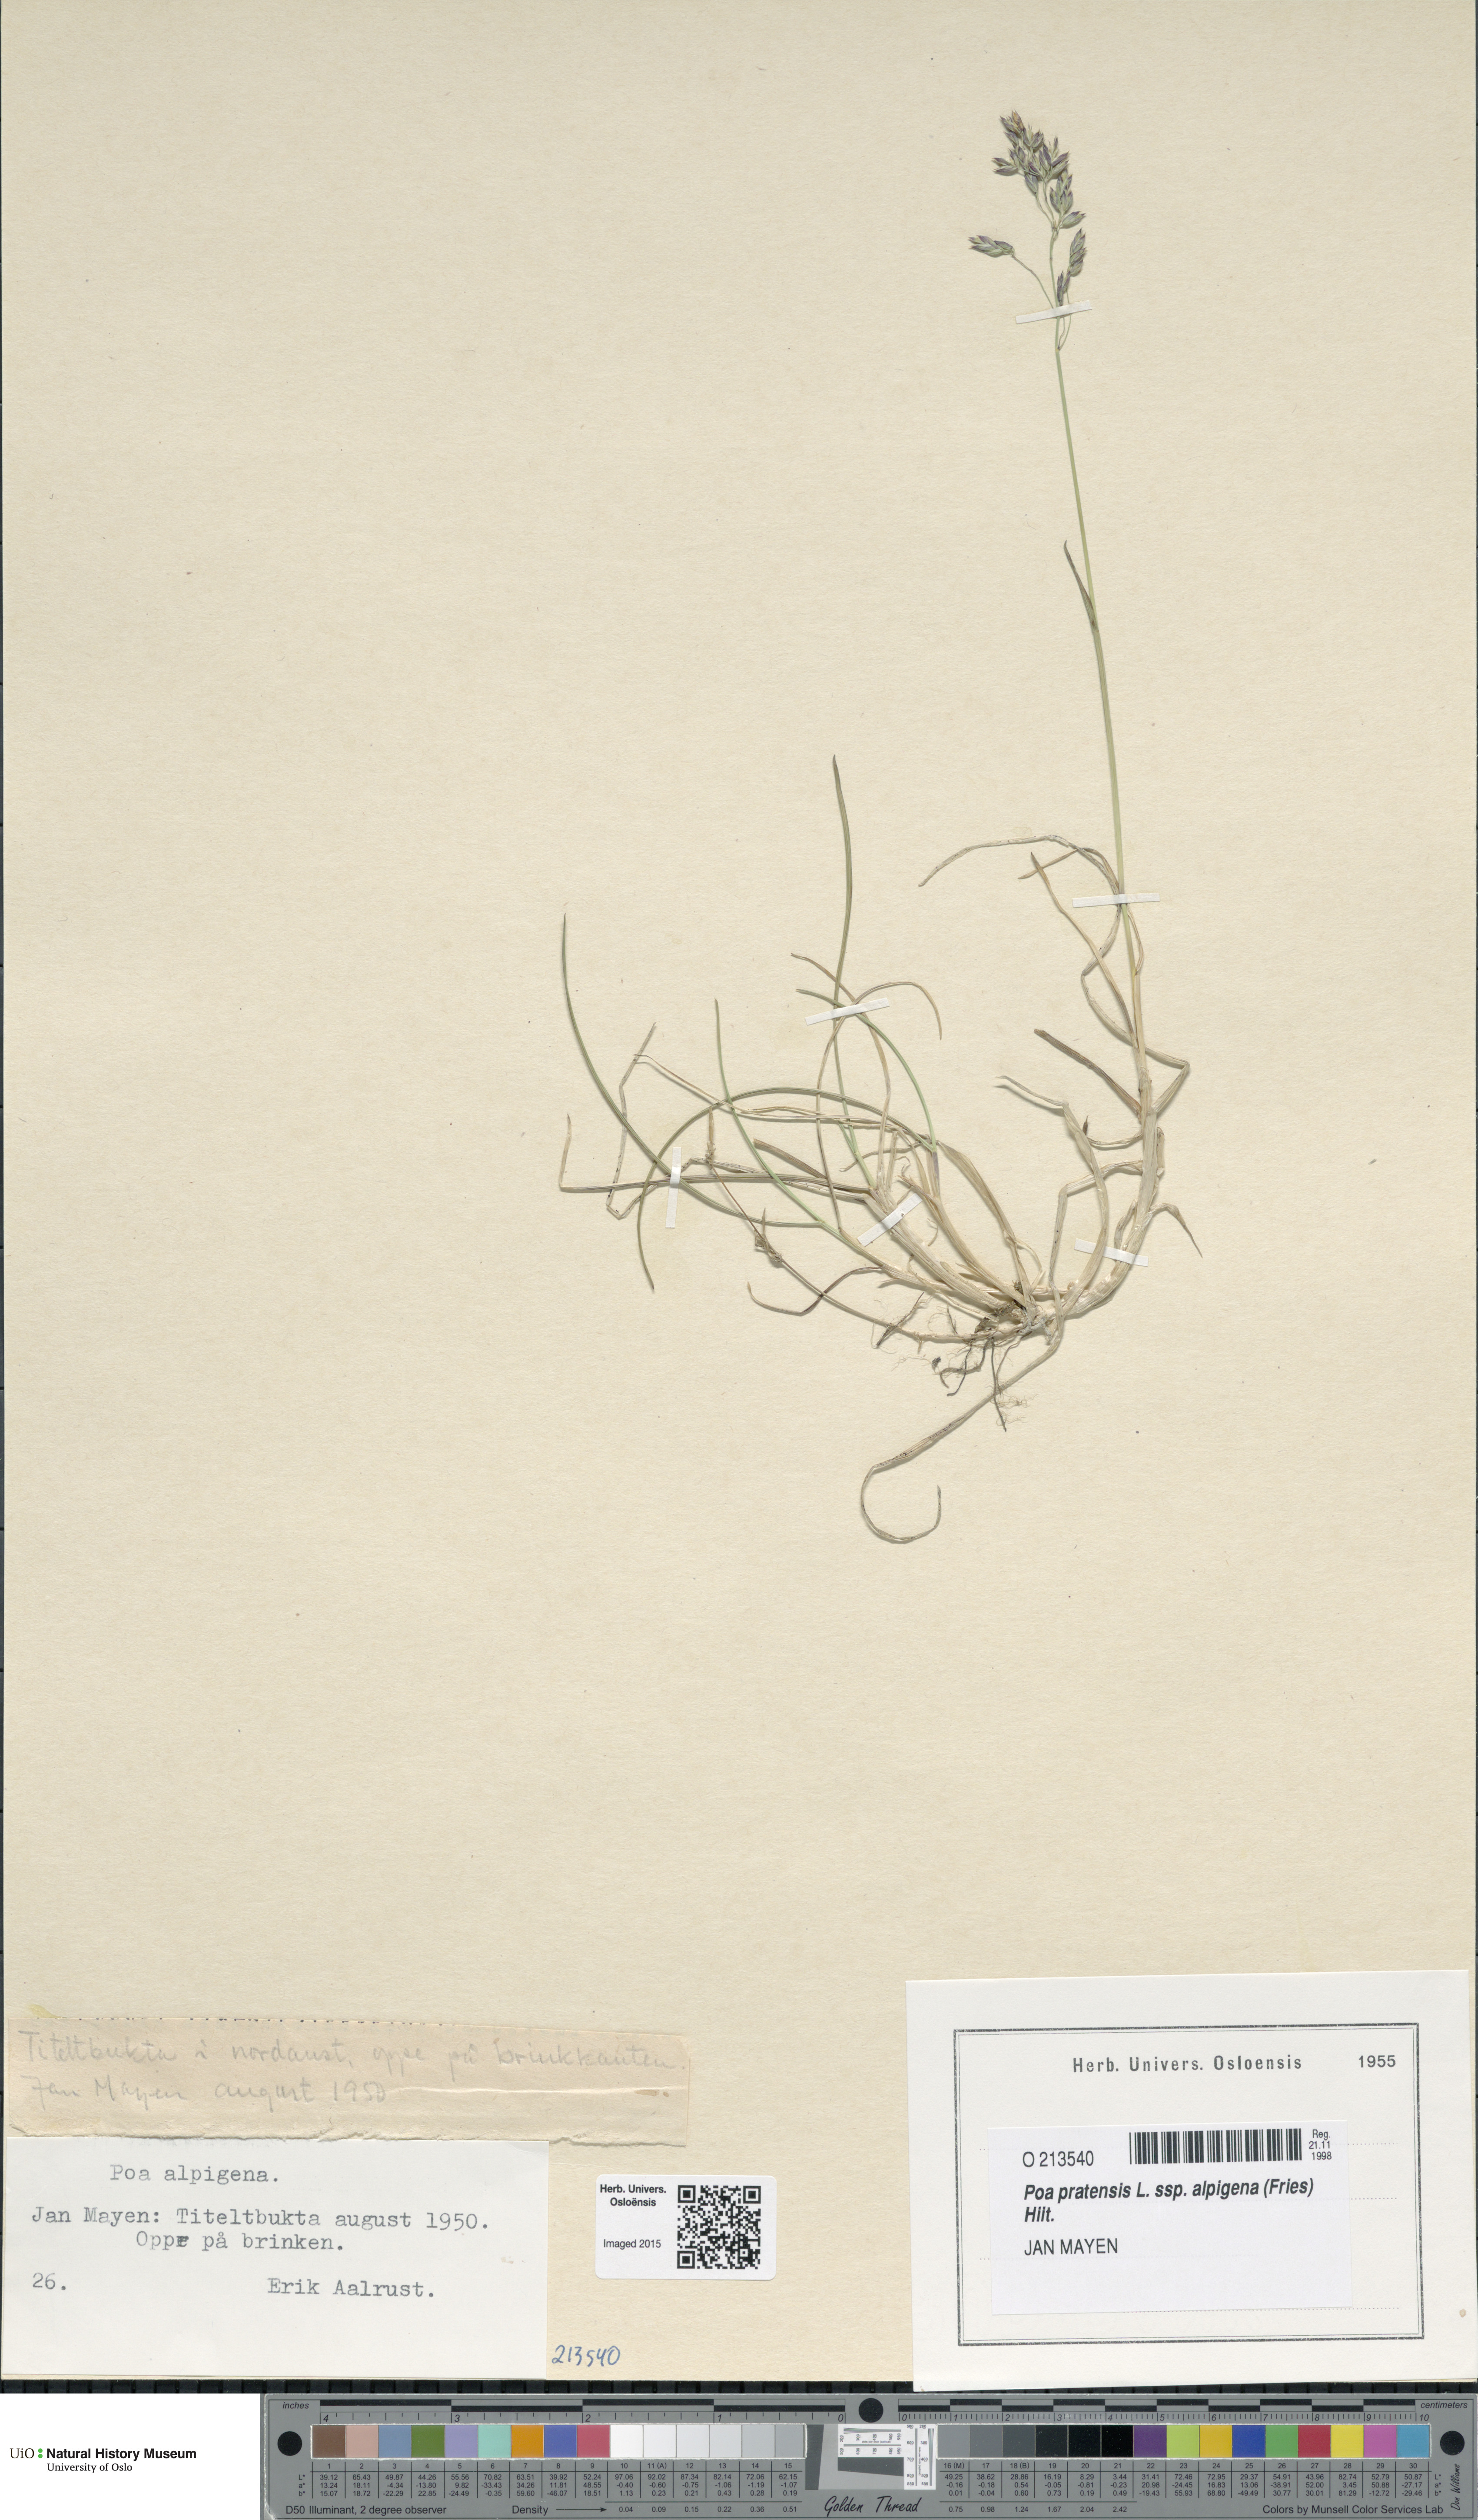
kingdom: Plantae
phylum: Tracheophyta
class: Liliopsida
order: Poales
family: Poaceae
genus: Poa
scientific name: Poa alpigena
